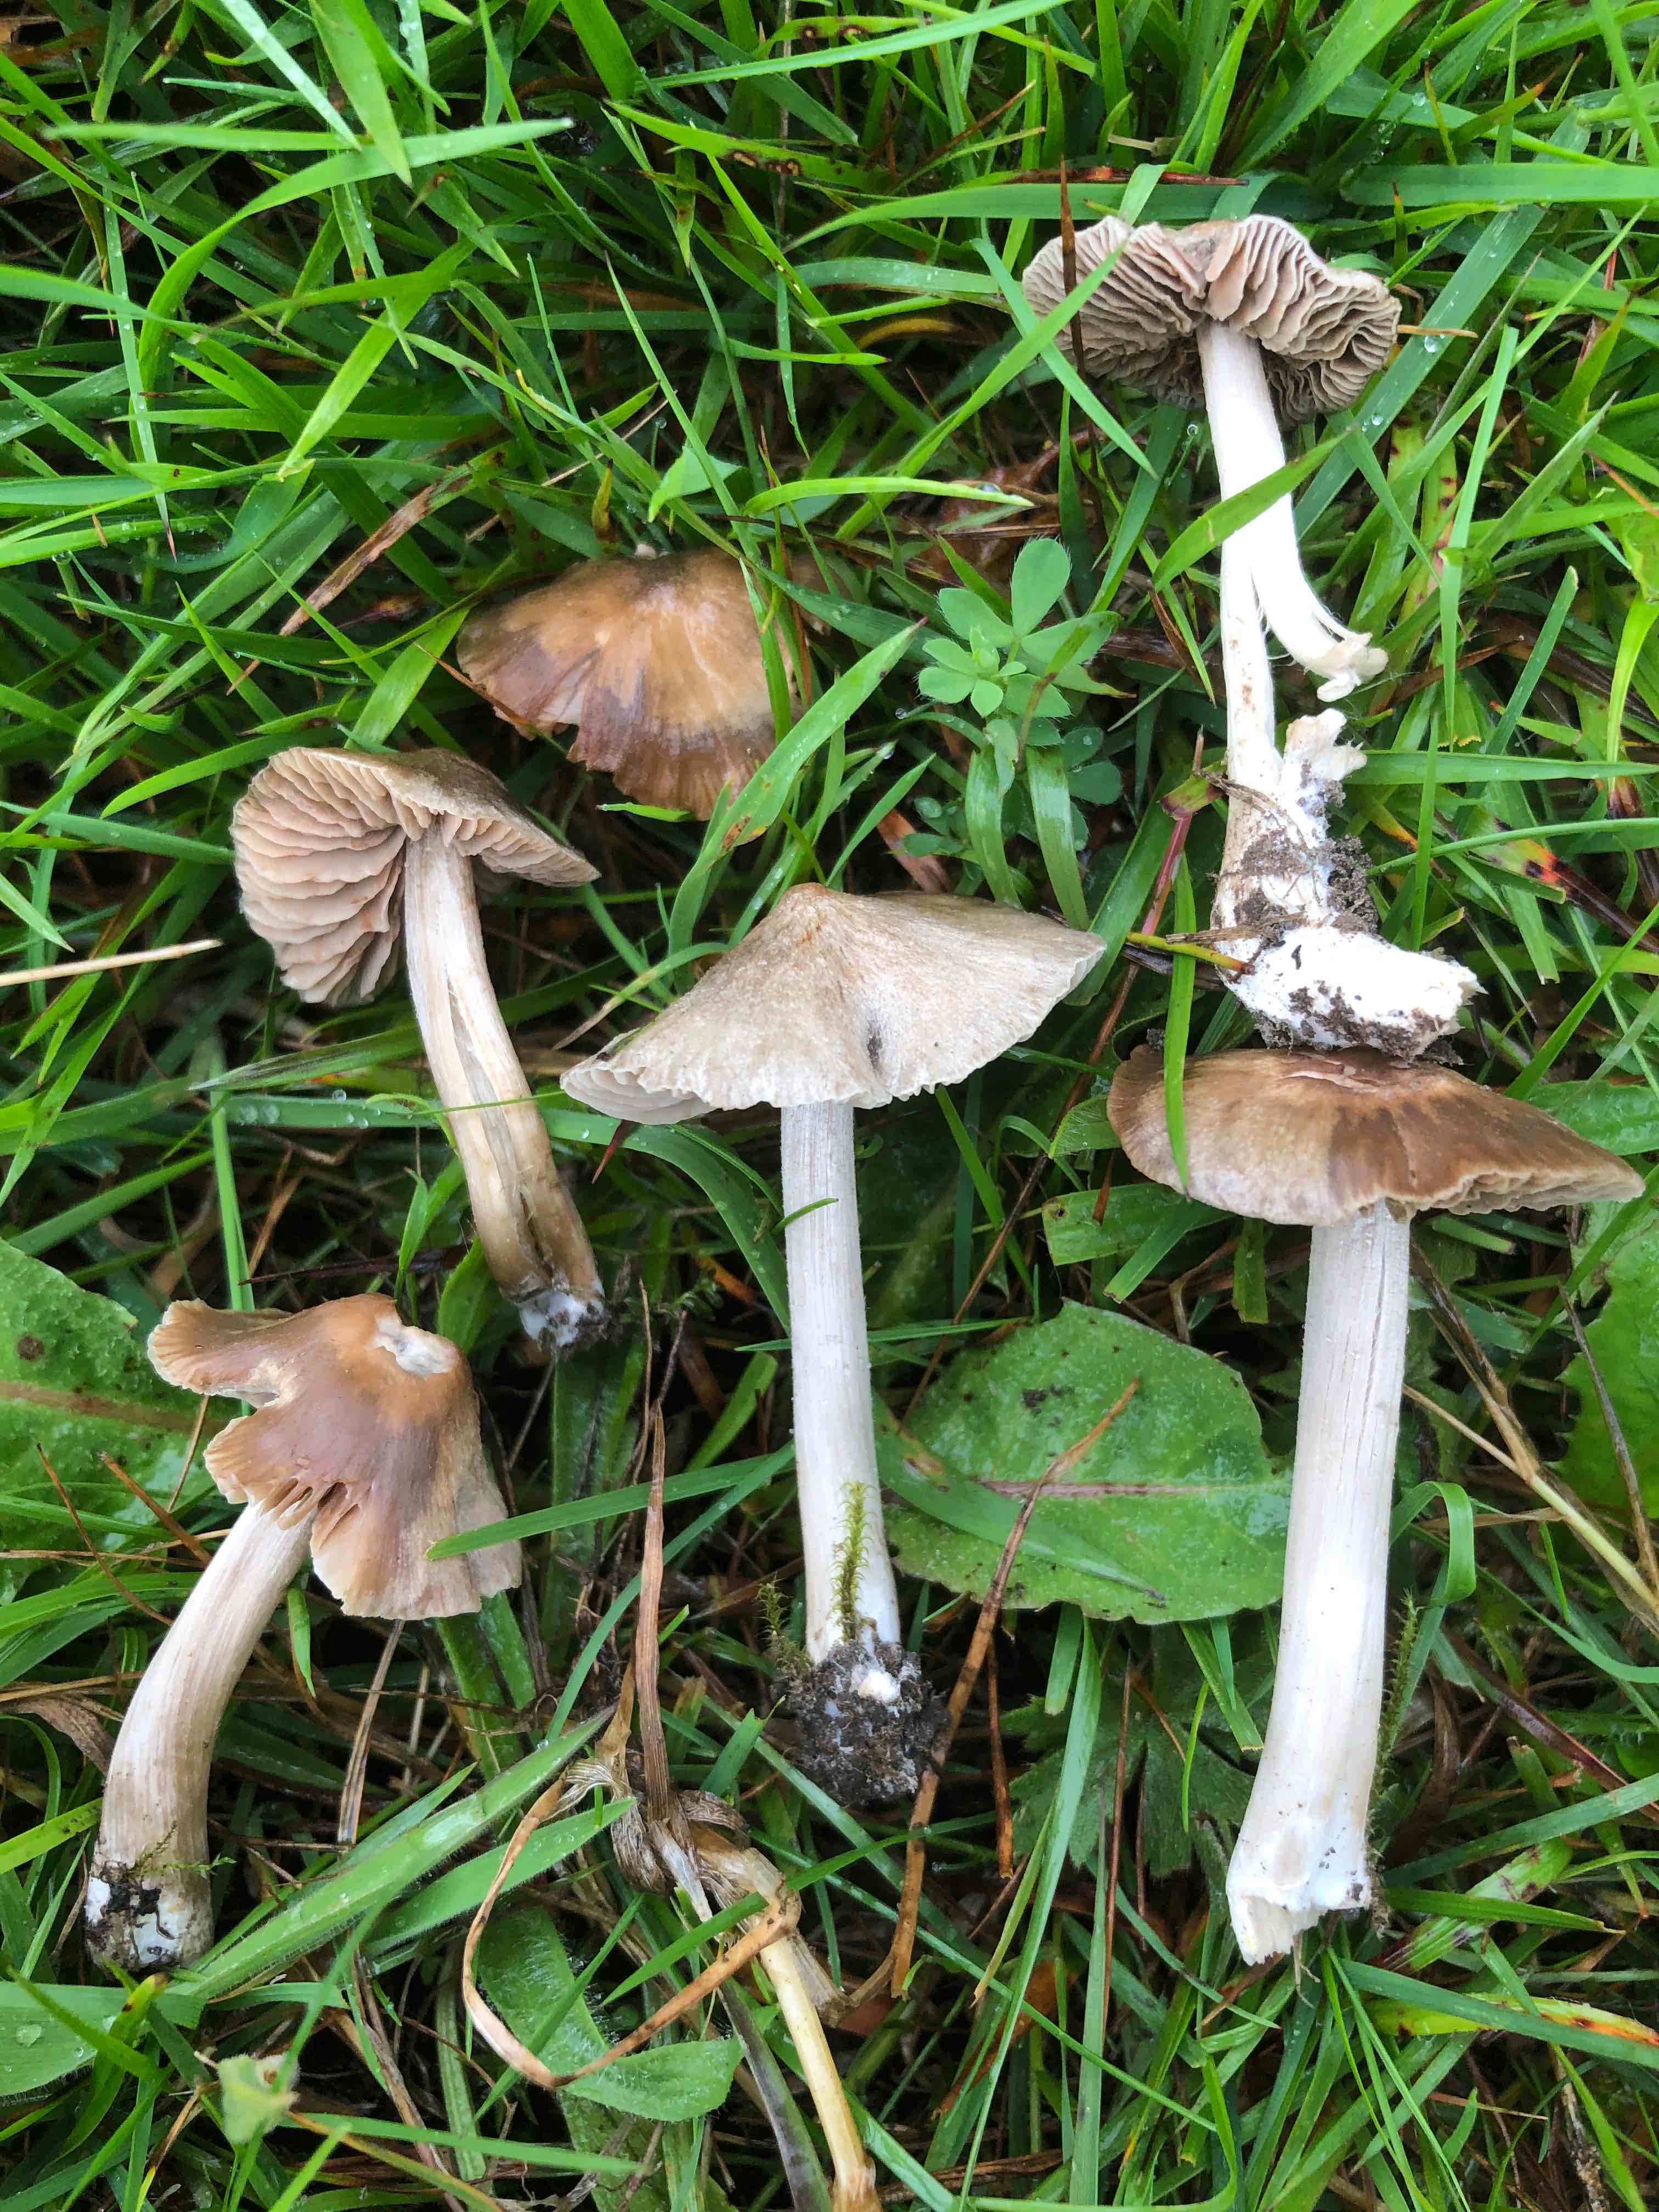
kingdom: Fungi
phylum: Basidiomycota
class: Agaricomycetes
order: Agaricales
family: Entolomataceae
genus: Entoloma
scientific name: Entoloma ameides
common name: sødlig rødblad
